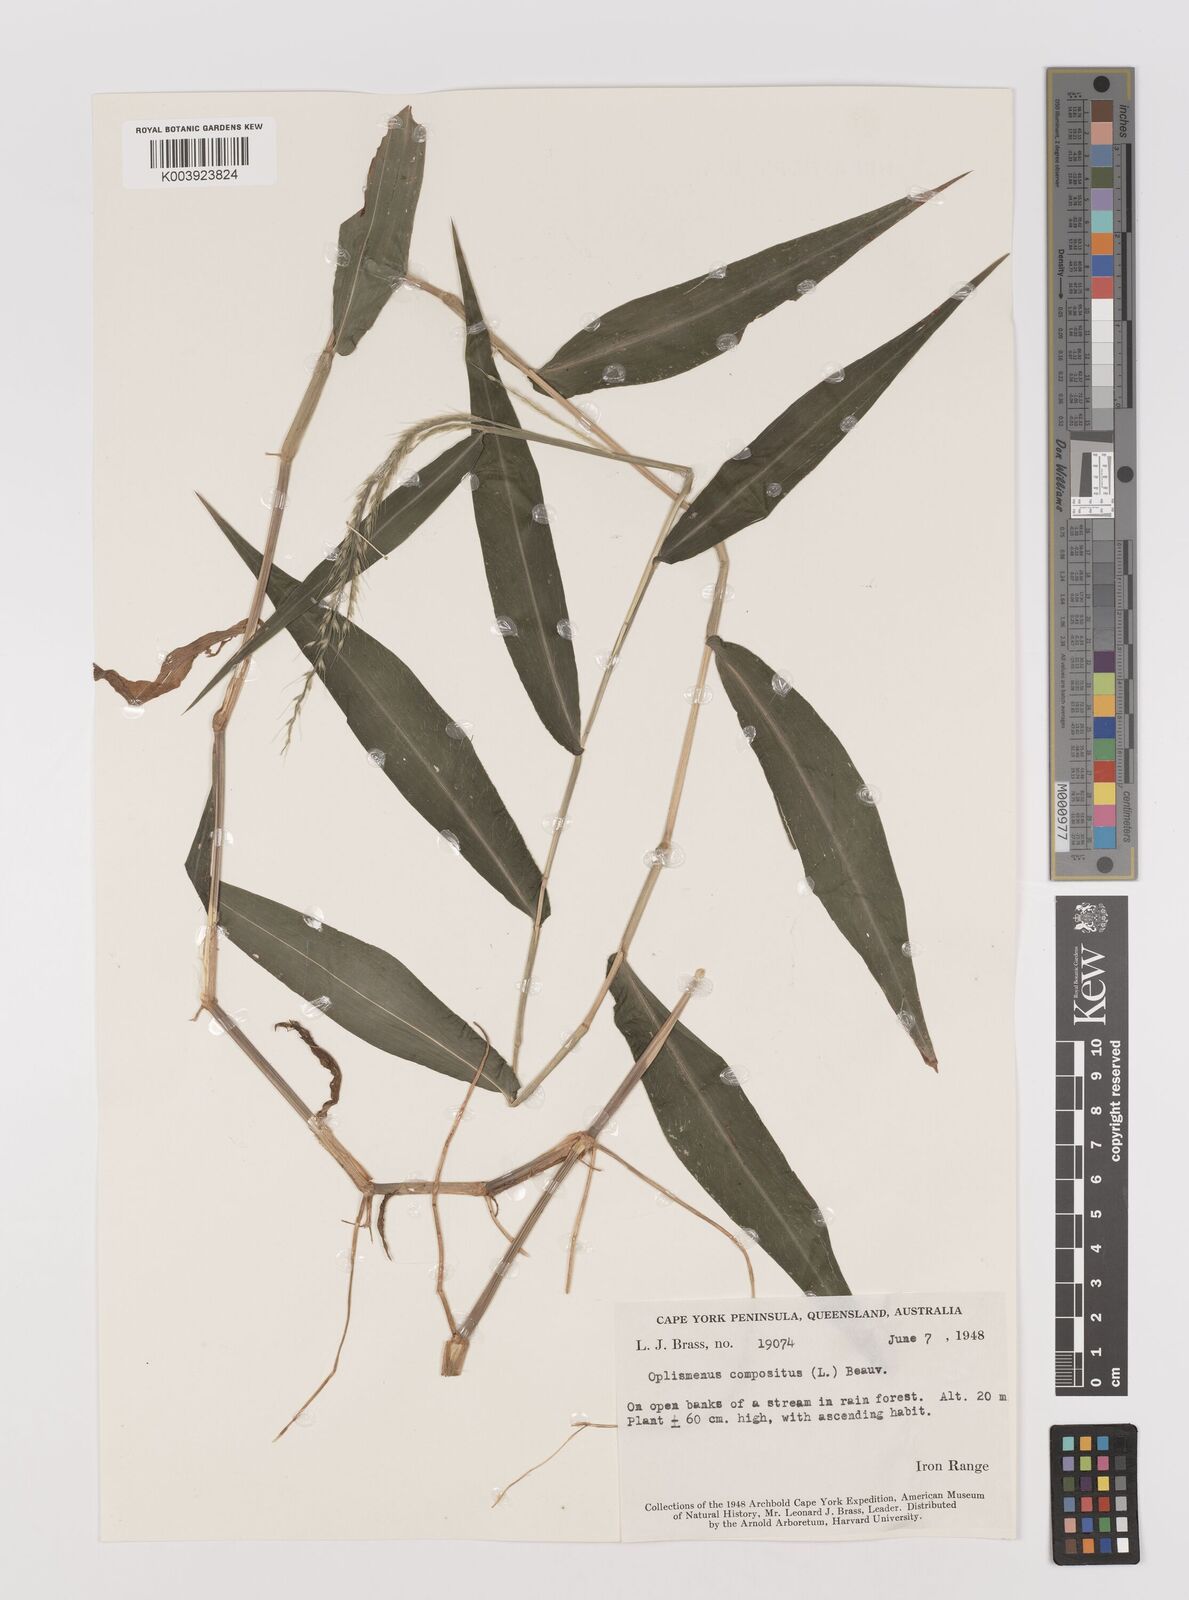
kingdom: Plantae
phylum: Tracheophyta
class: Liliopsida
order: Poales
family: Poaceae
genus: Oplismenus
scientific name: Oplismenus compositus
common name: Running mountain grass
